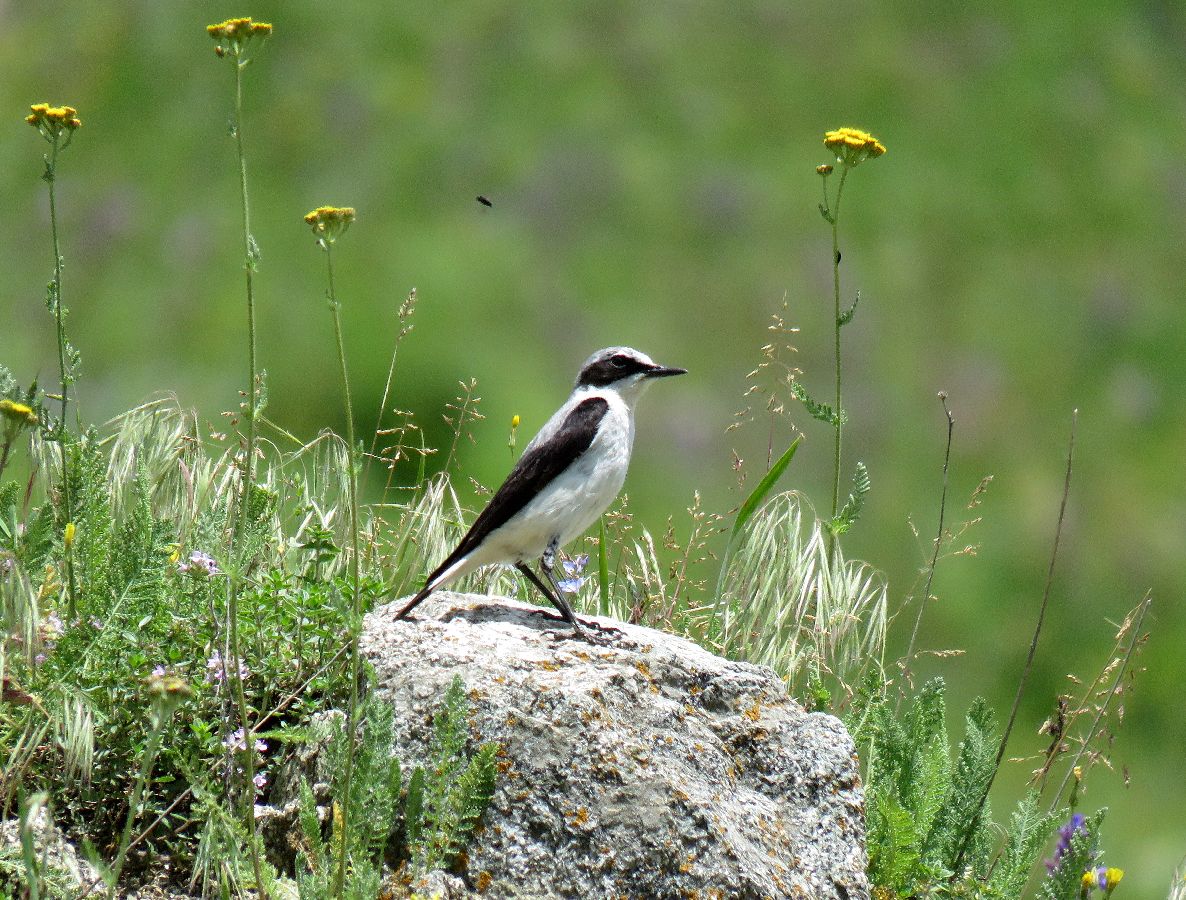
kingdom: Animalia
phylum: Chordata
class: Aves
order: Passeriformes
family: Muscicapidae
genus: Oenanthe
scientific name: Oenanthe oenanthe
